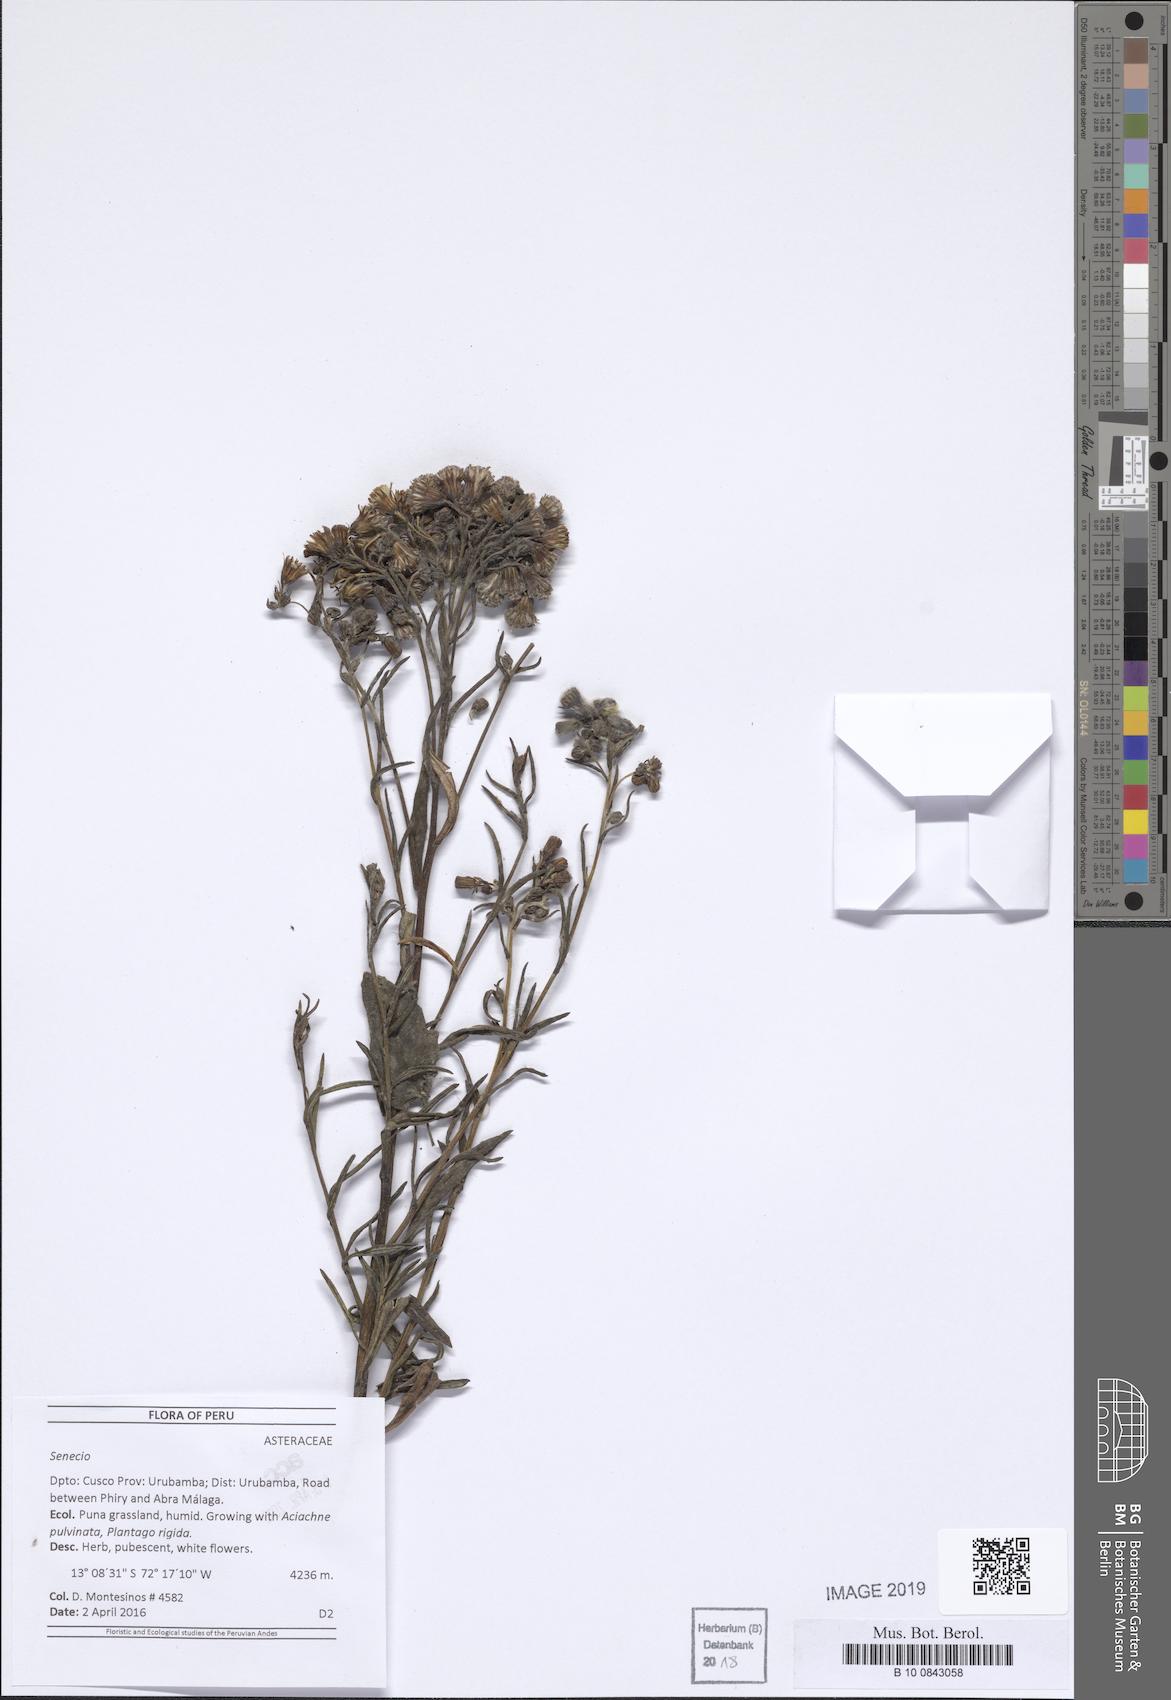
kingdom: Plantae
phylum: Tracheophyta
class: Magnoliopsida
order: Asterales
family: Asteraceae
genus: Senecio
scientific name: Senecio parvocapitatus
